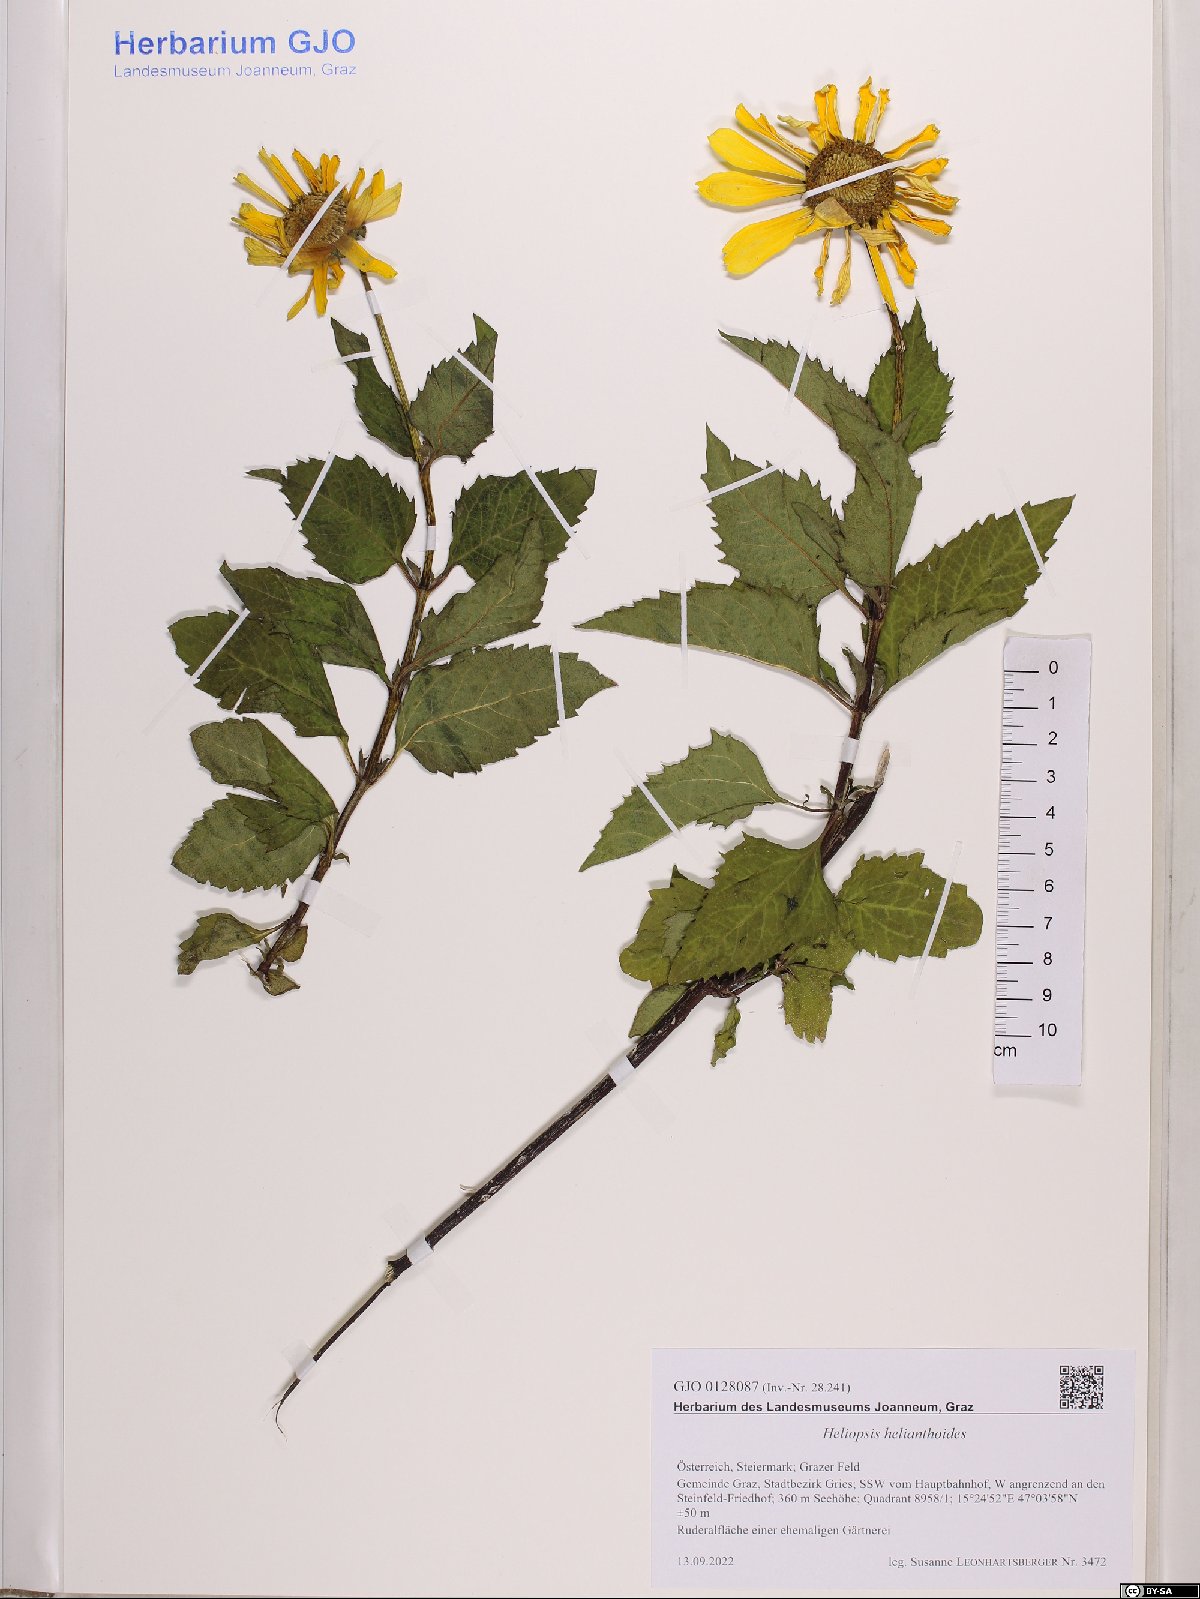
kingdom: Plantae
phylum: Tracheophyta
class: Magnoliopsida
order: Asterales
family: Asteraceae
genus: Heliopsis
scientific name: Heliopsis helianthoides
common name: False sunflower
